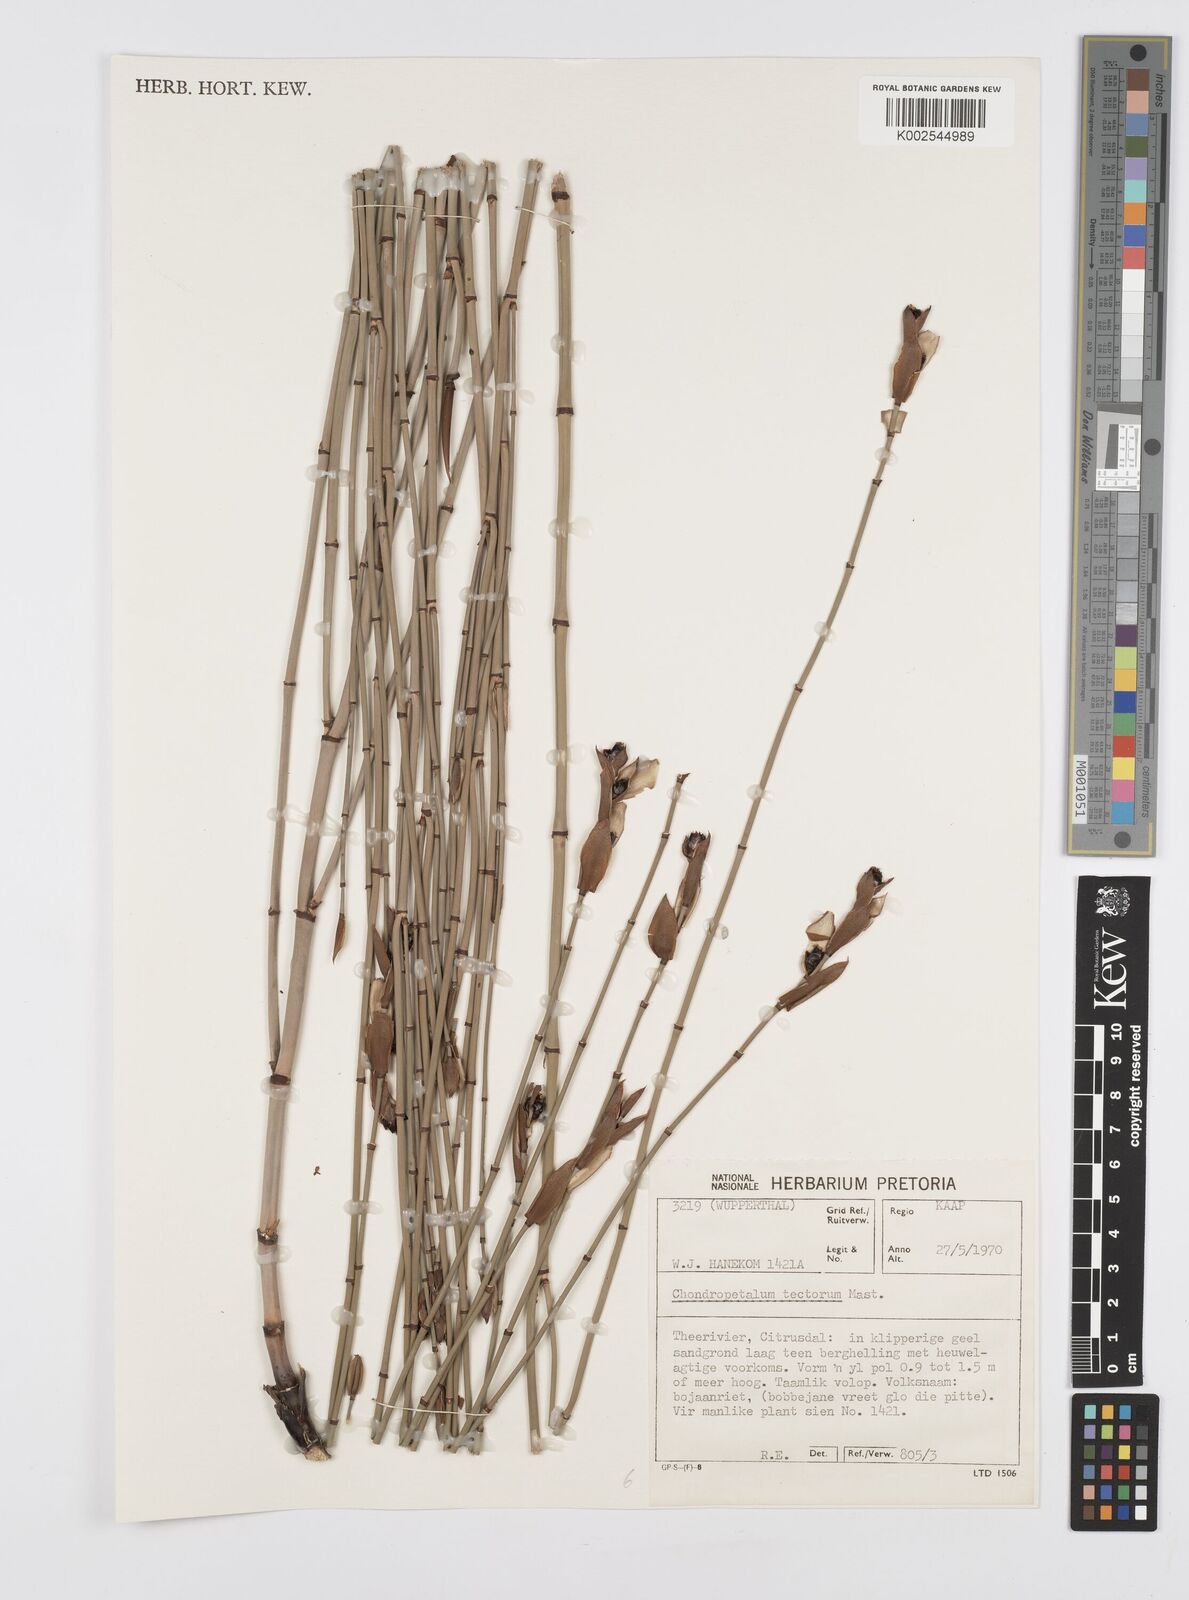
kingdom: Plantae
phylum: Tracheophyta
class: Liliopsida
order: Poales
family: Restionaceae
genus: Elegia
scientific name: Elegia macrocarpa
